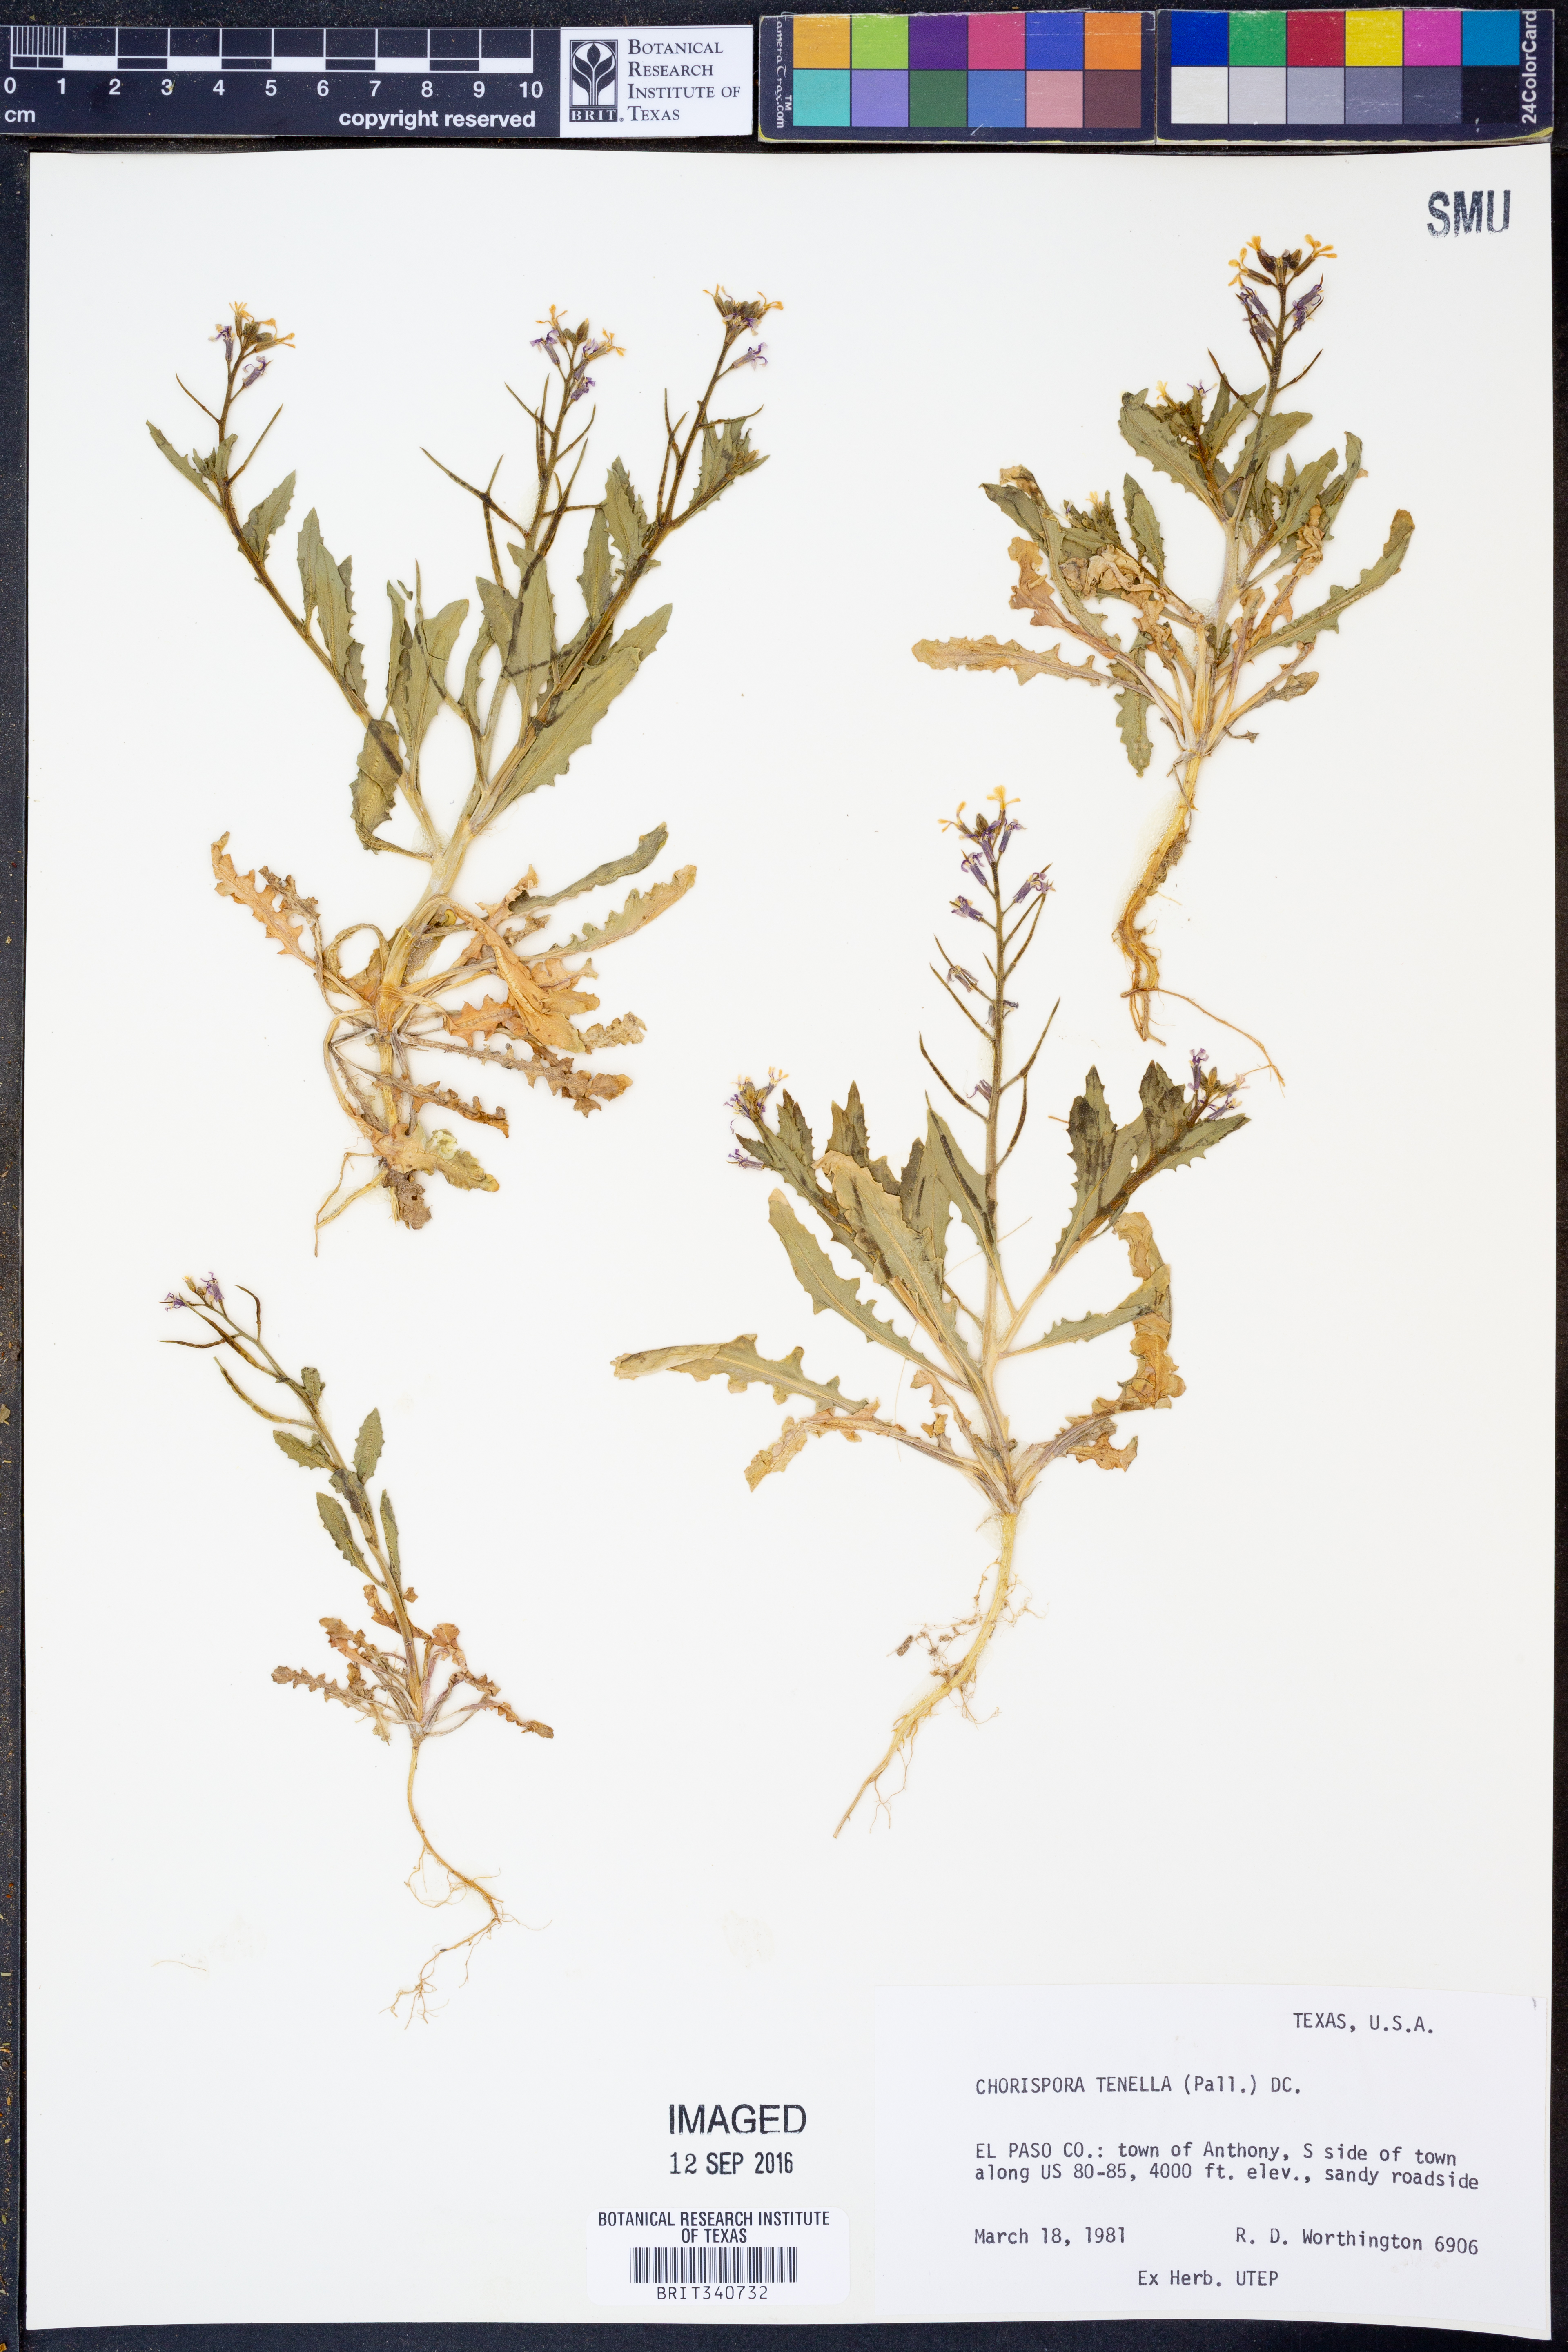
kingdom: Plantae
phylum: Tracheophyta
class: Magnoliopsida
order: Brassicales
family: Brassicaceae
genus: Chorispora
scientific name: Chorispora tenella
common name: Crossflower
